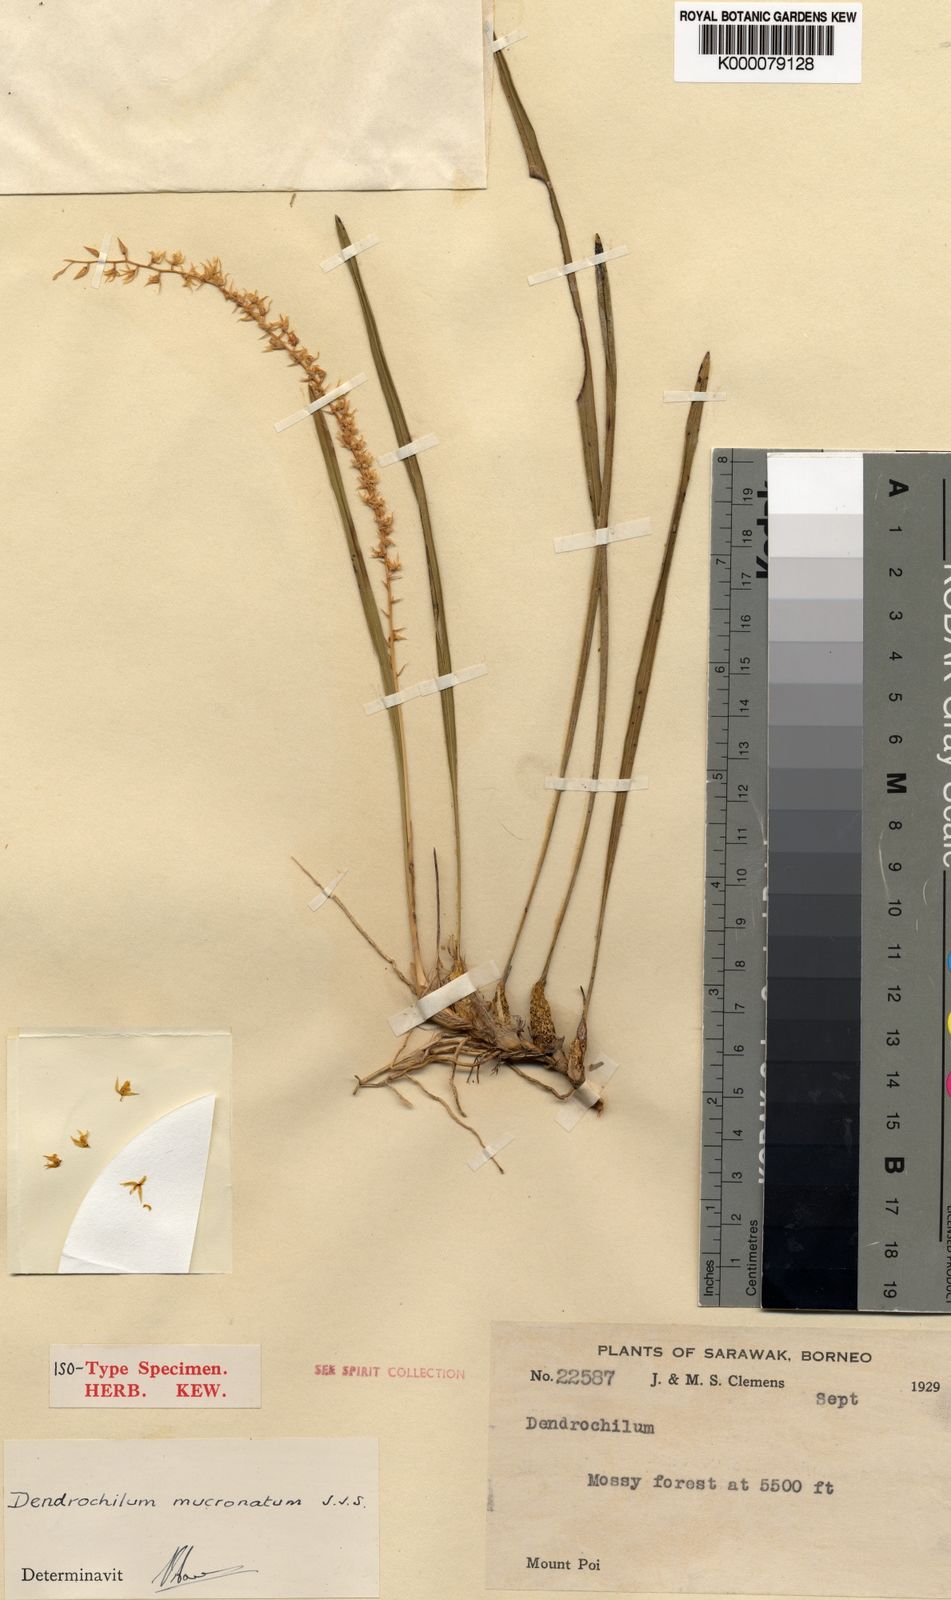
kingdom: Plantae
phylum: Tracheophyta
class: Liliopsida
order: Asparagales
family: Orchidaceae
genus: Coelogyne
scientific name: Coelogyne mucronata
